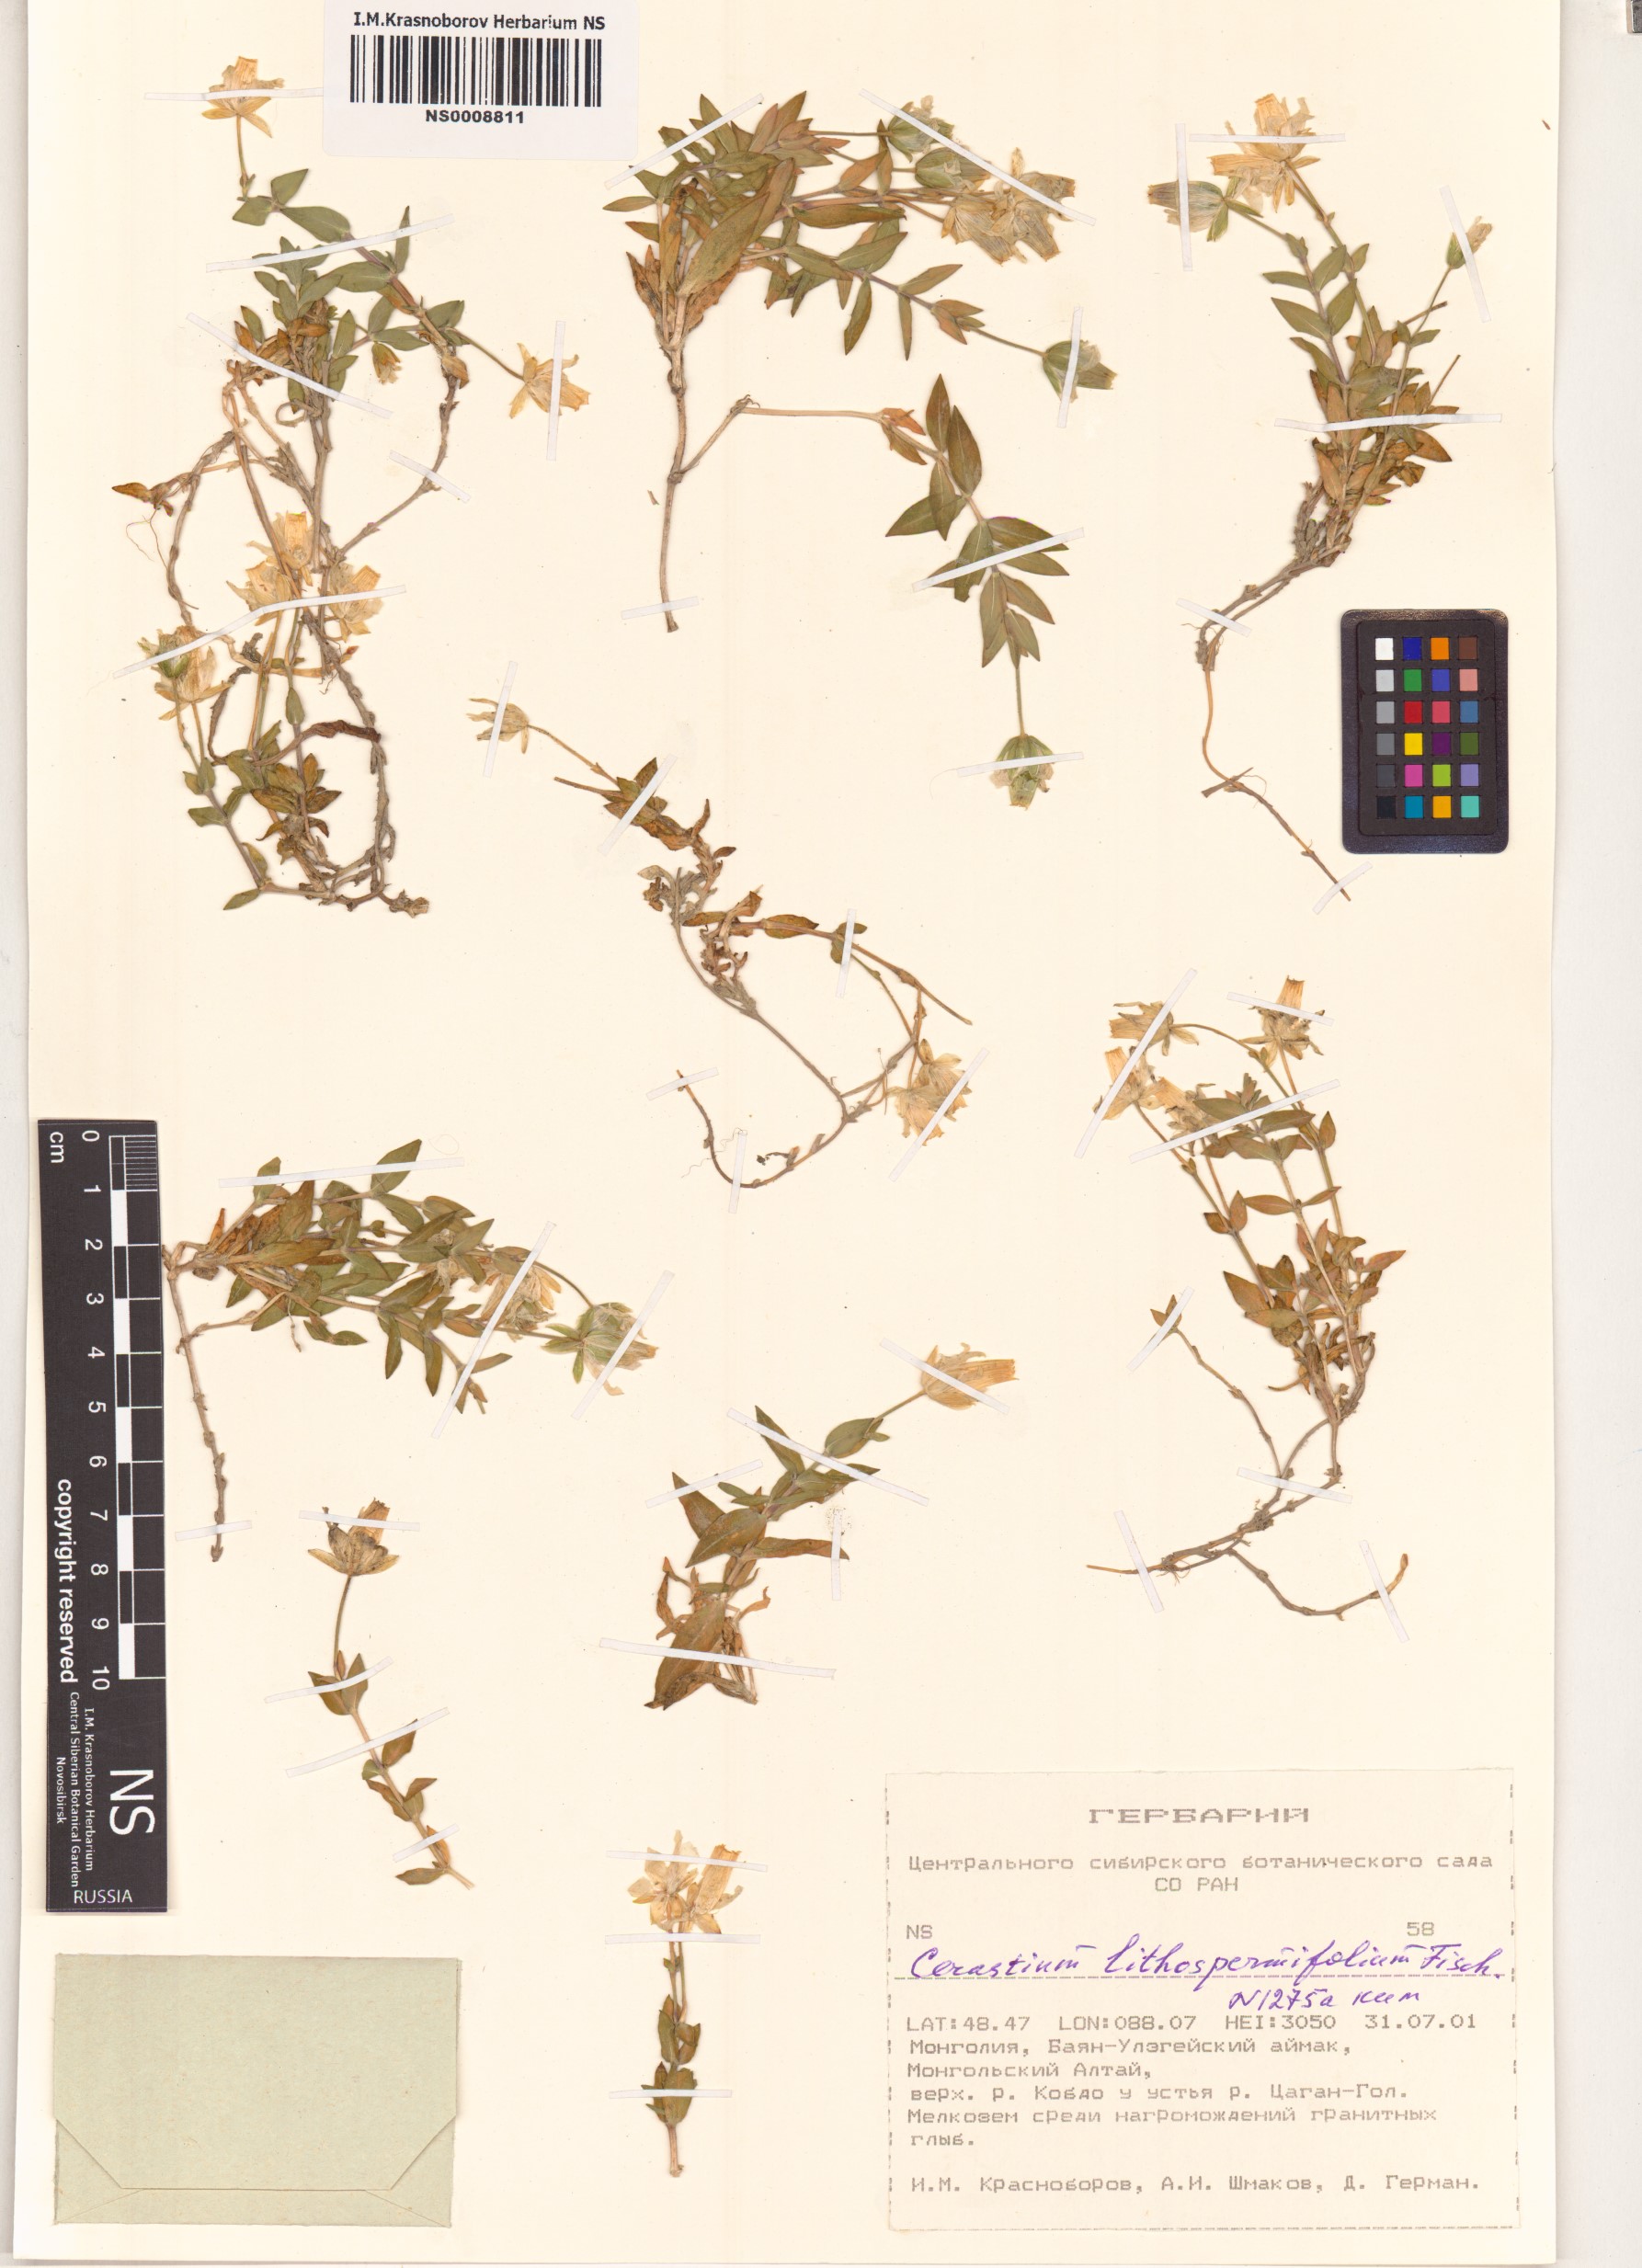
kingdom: Plantae
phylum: Tracheophyta
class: Magnoliopsida
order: Caryophyllales
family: Caryophyllaceae
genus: Cerastium
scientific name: Cerastium lithospermifolium
